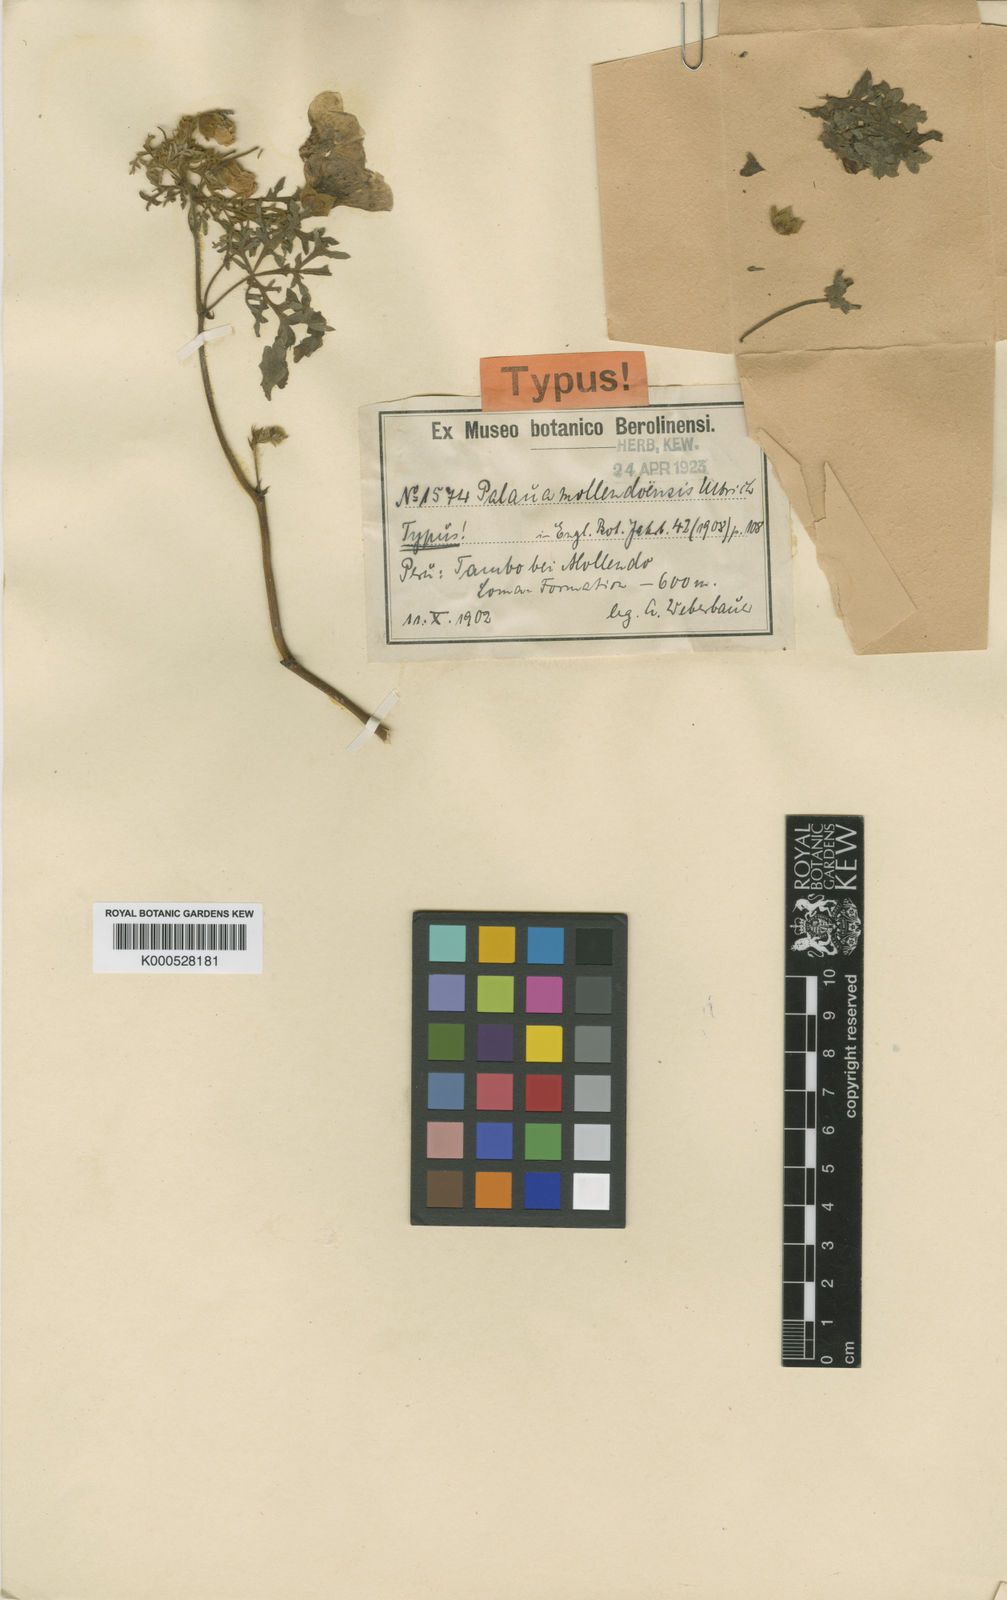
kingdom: Plantae
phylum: Tracheophyta
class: Magnoliopsida
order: Malvales
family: Malvaceae
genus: Palaua
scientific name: Palaua mollendoensis
